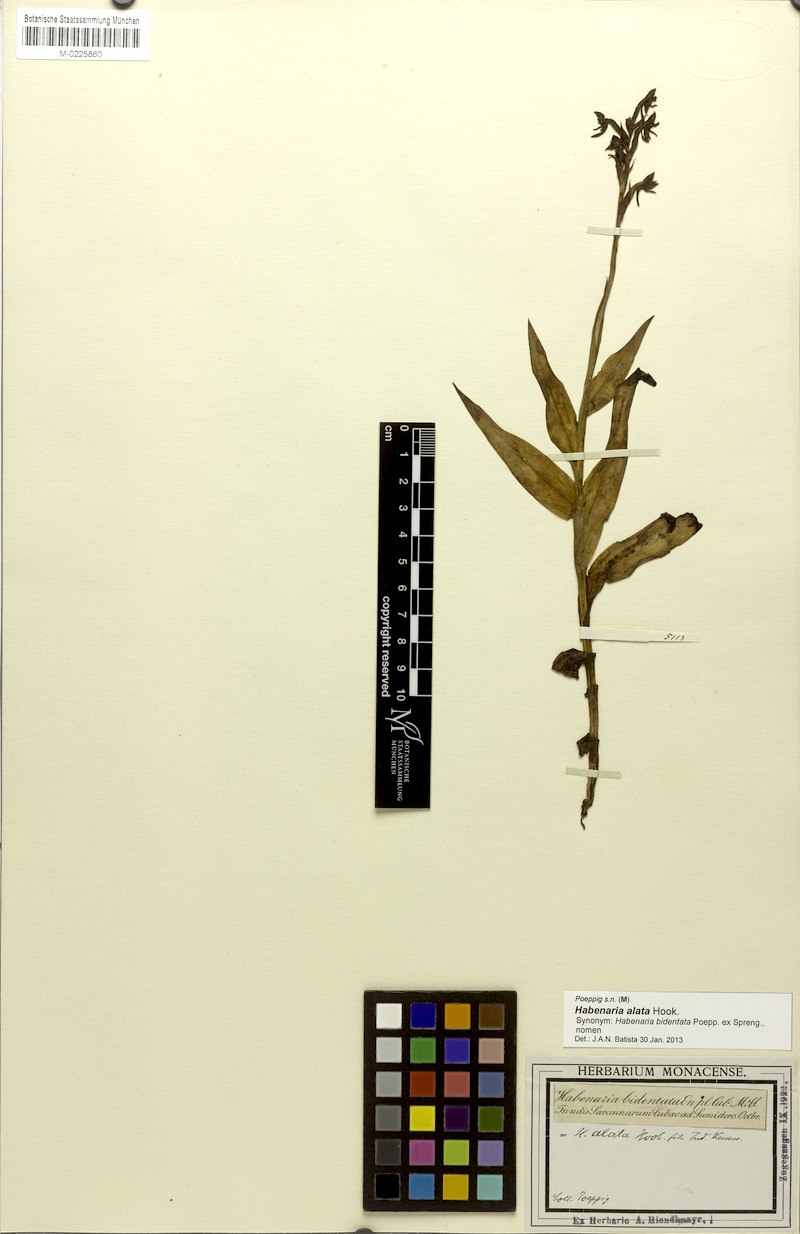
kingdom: Plantae
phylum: Tracheophyta
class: Liliopsida
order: Asparagales
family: Orchidaceae
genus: Habenaria
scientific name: Habenaria alata
